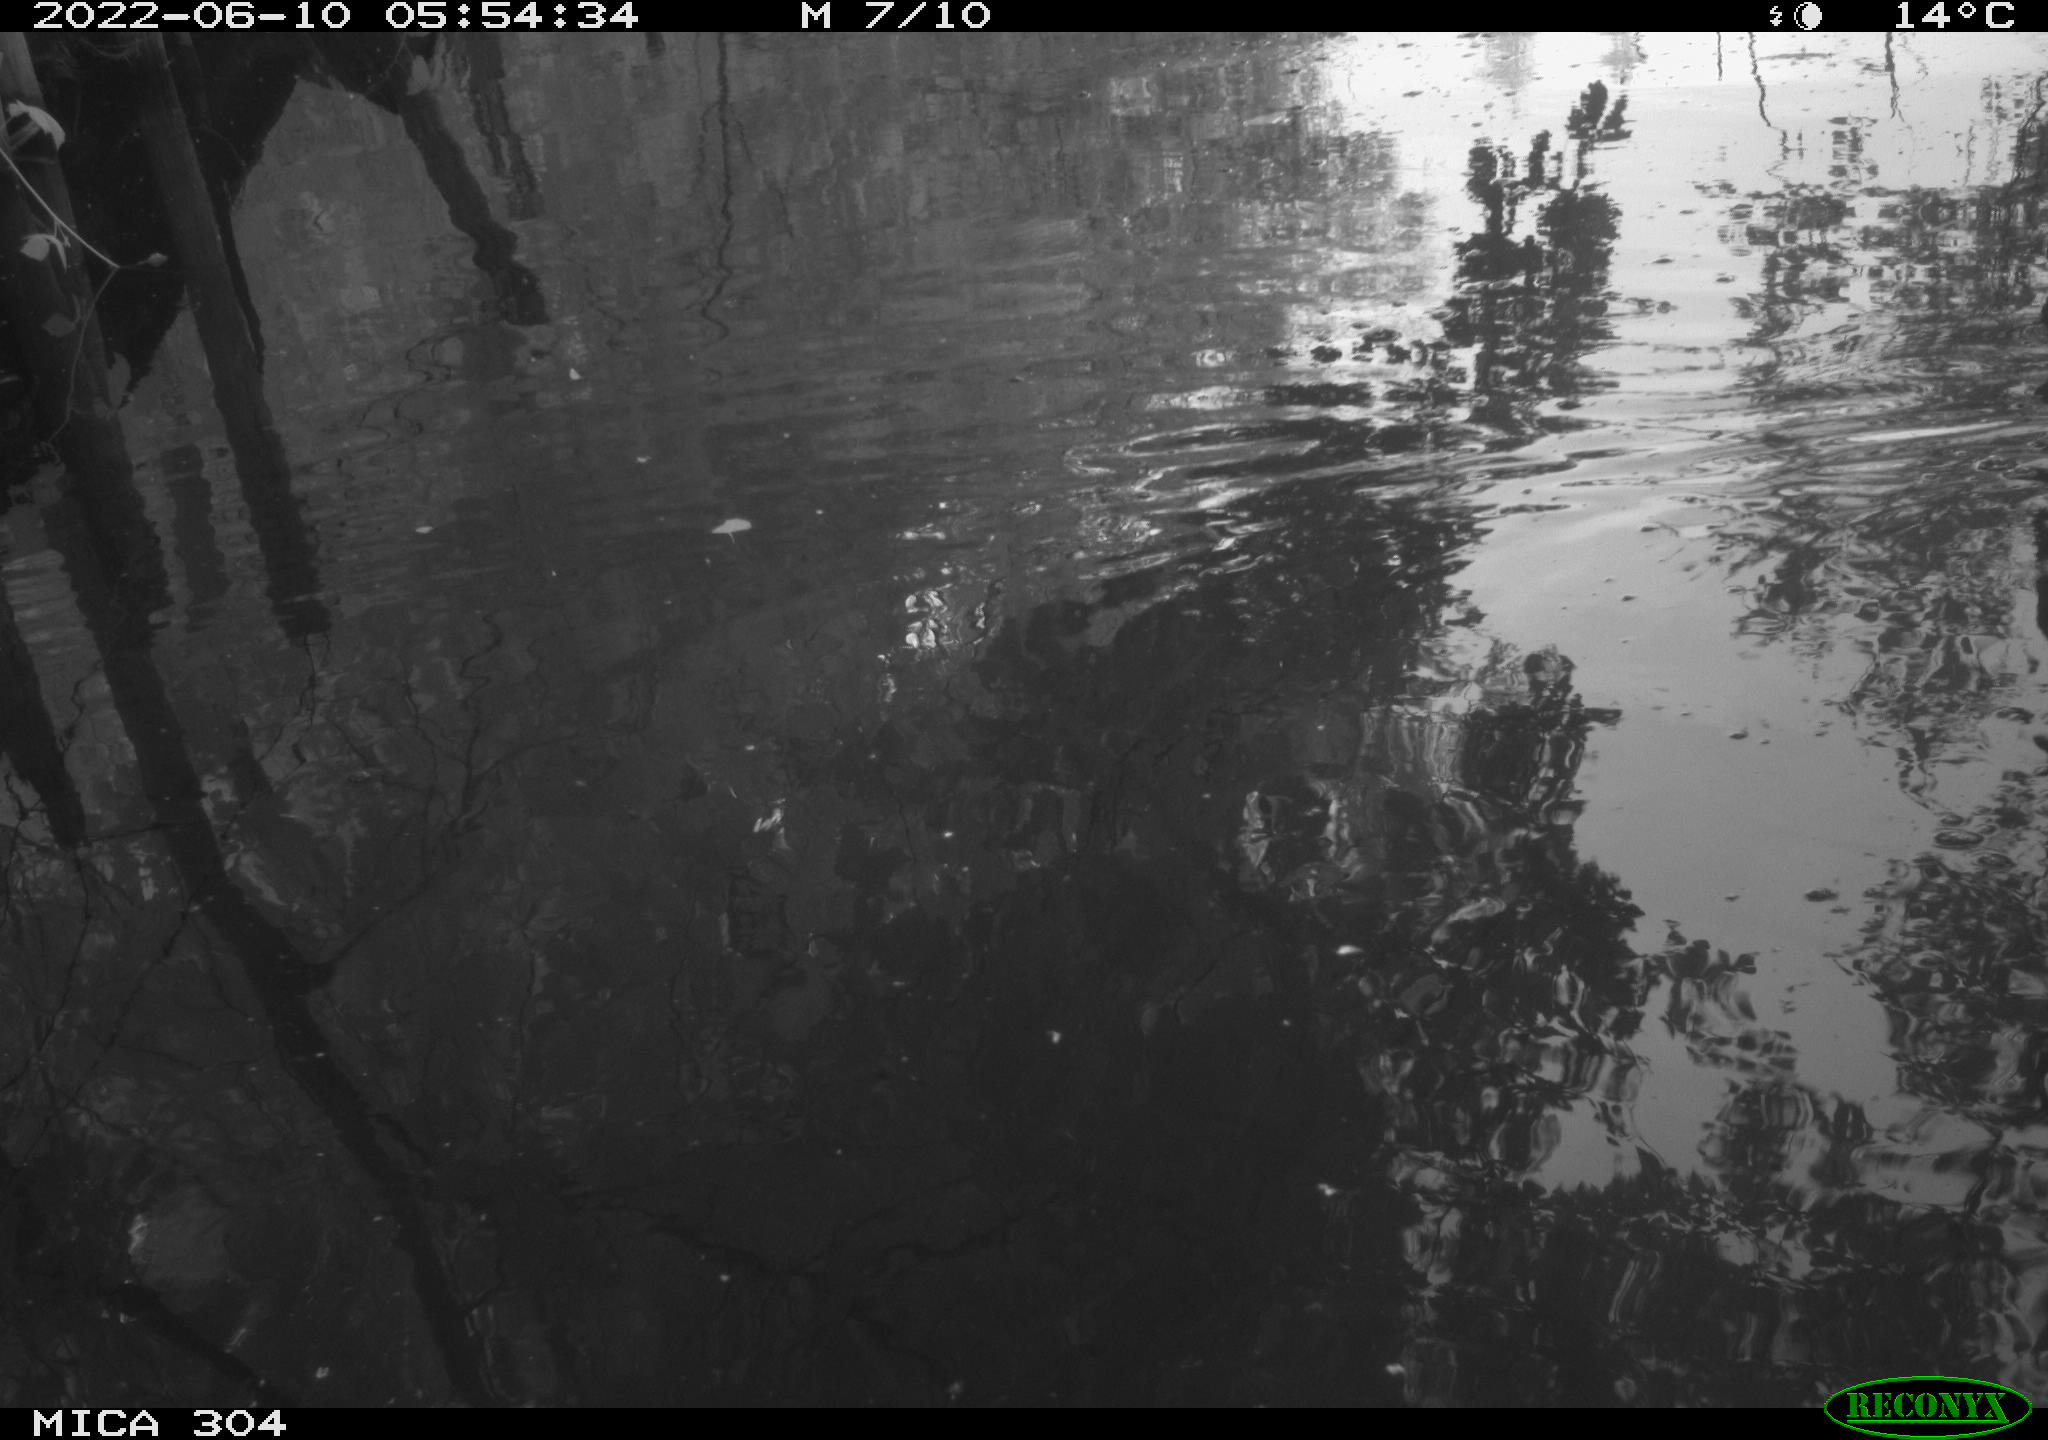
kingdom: Animalia
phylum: Chordata
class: Aves
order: Gruiformes
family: Rallidae
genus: Fulica
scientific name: Fulica atra
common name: Eurasian coot
